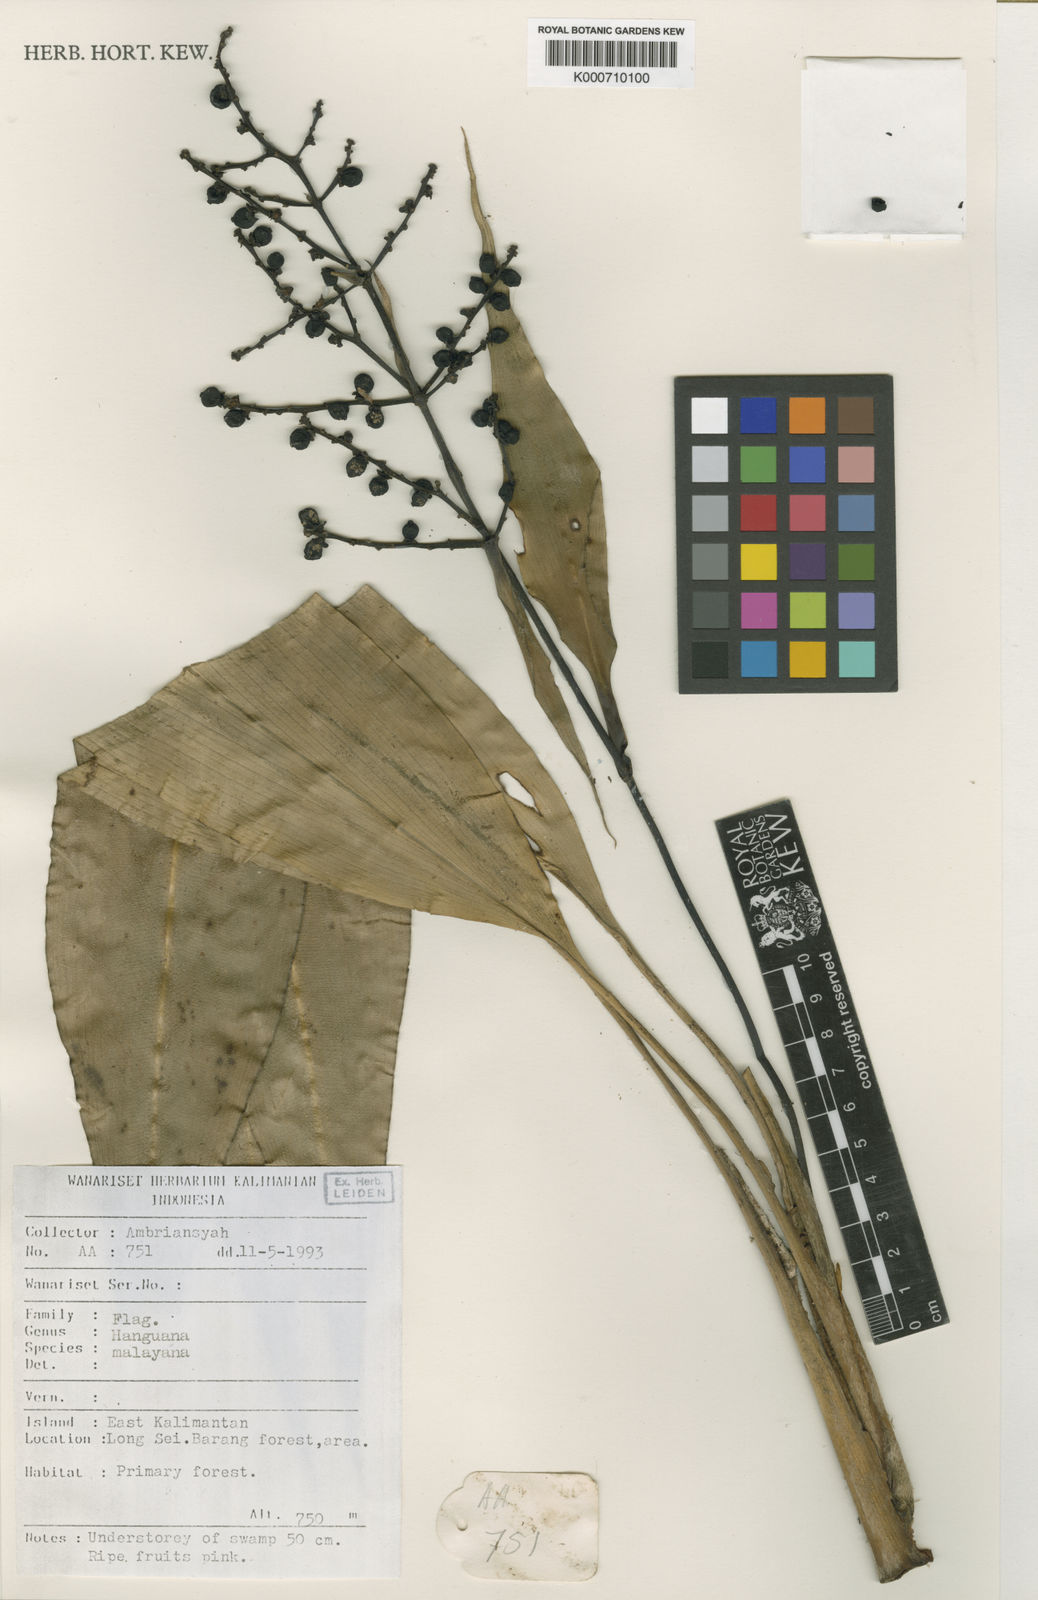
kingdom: Plantae
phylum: Tracheophyta
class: Liliopsida
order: Commelinales
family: Hanguanaceae
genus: Hanguana
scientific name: Hanguana malayana
